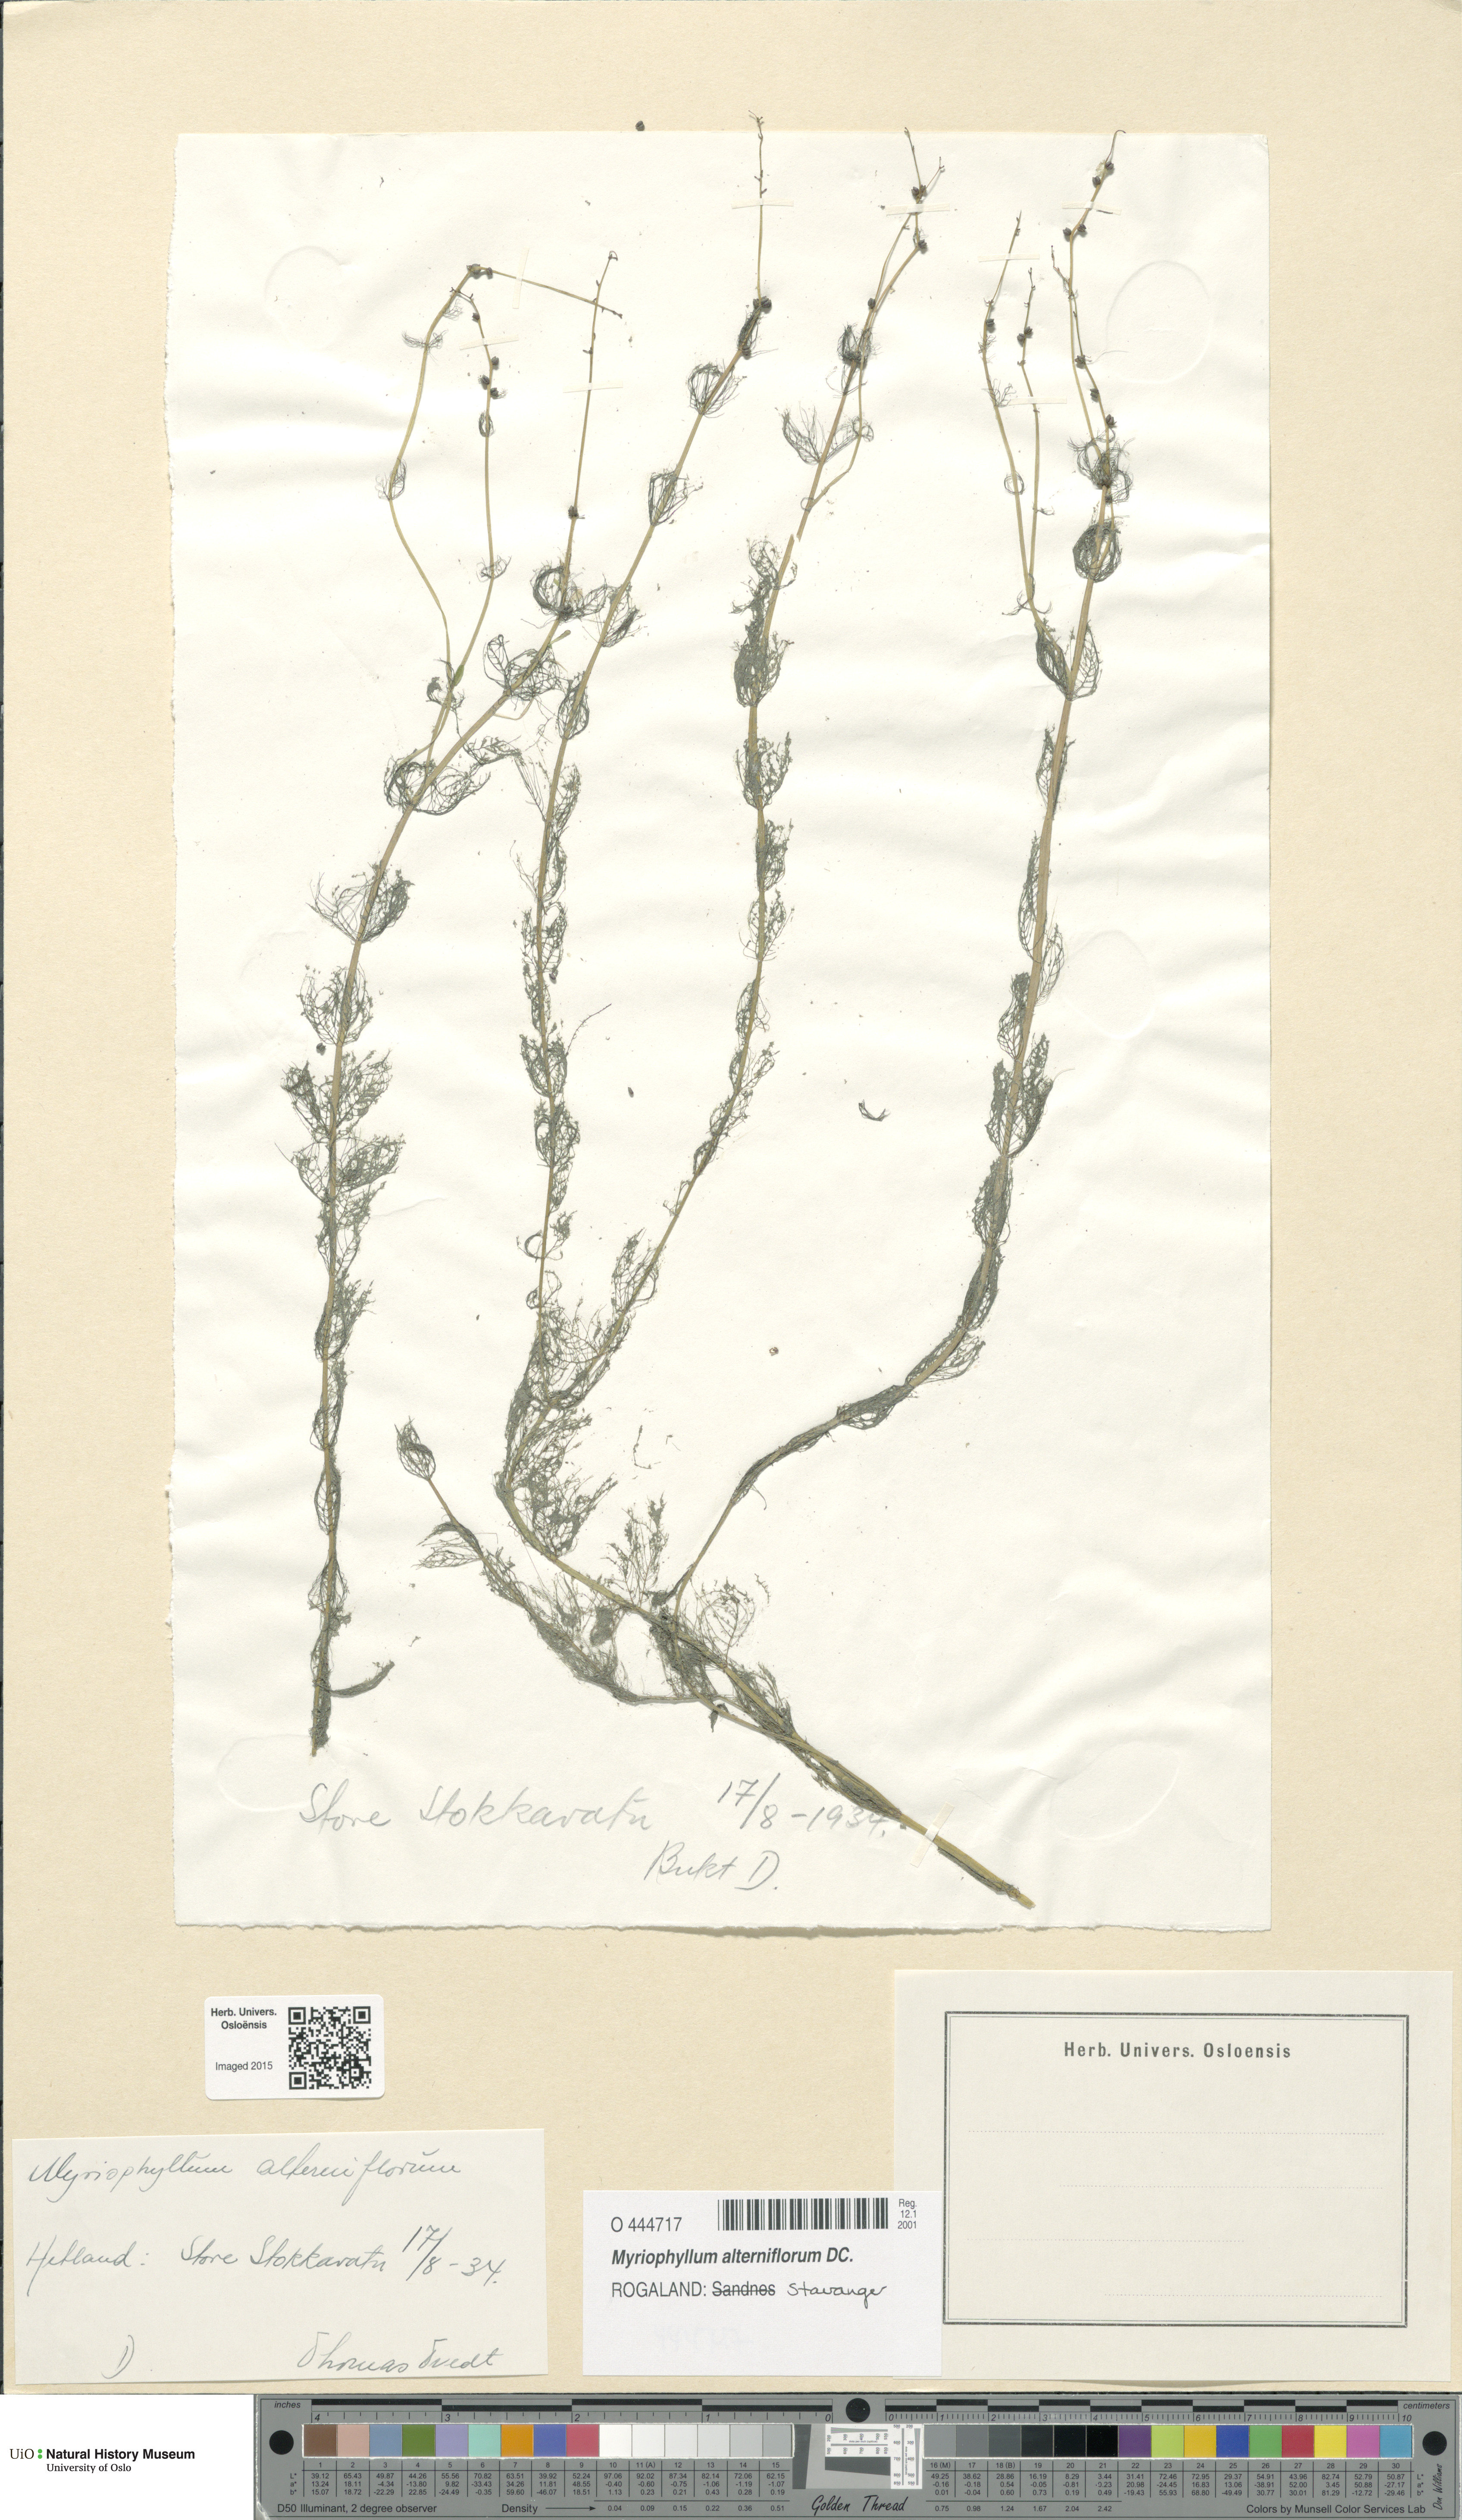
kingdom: Plantae
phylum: Tracheophyta
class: Magnoliopsida
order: Saxifragales
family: Haloragaceae
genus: Myriophyllum
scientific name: Myriophyllum alterniflorum
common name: Alternate water-milfoil
